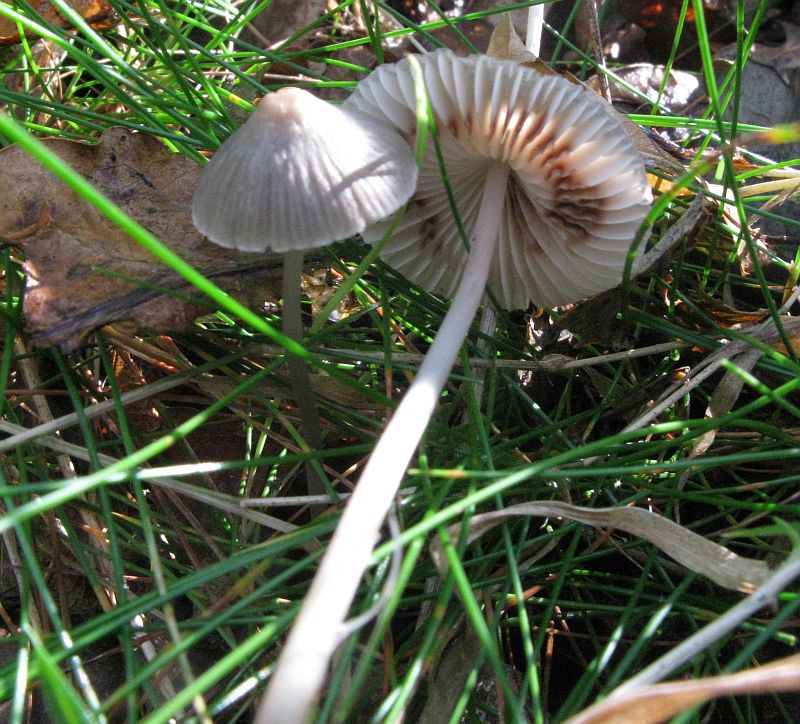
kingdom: Fungi
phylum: Basidiomycota
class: Agaricomycetes
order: Agaricales
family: Mycenaceae
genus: Mycena
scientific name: Mycena polygramma
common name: mangestribet huesvamp
